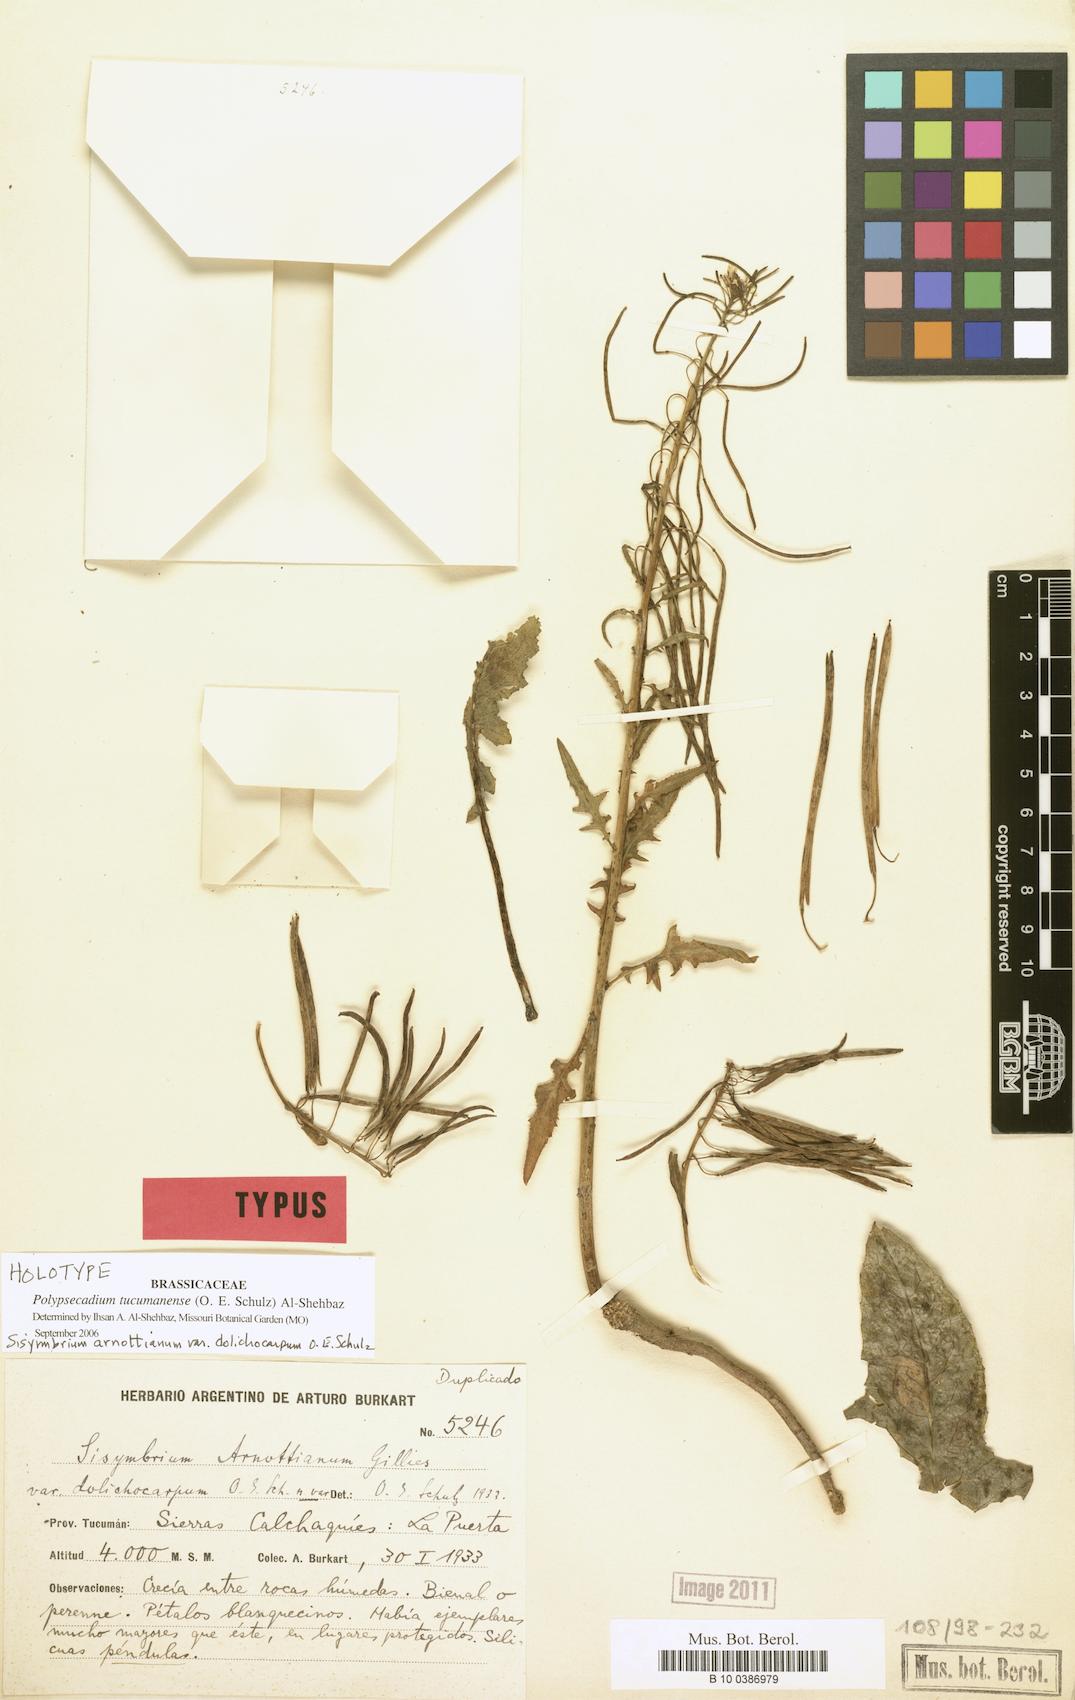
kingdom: Plantae
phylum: Tracheophyta
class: Magnoliopsida
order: Brassicales
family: Brassicaceae
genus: Polypsecadium
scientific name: Polypsecadium tucumanense
